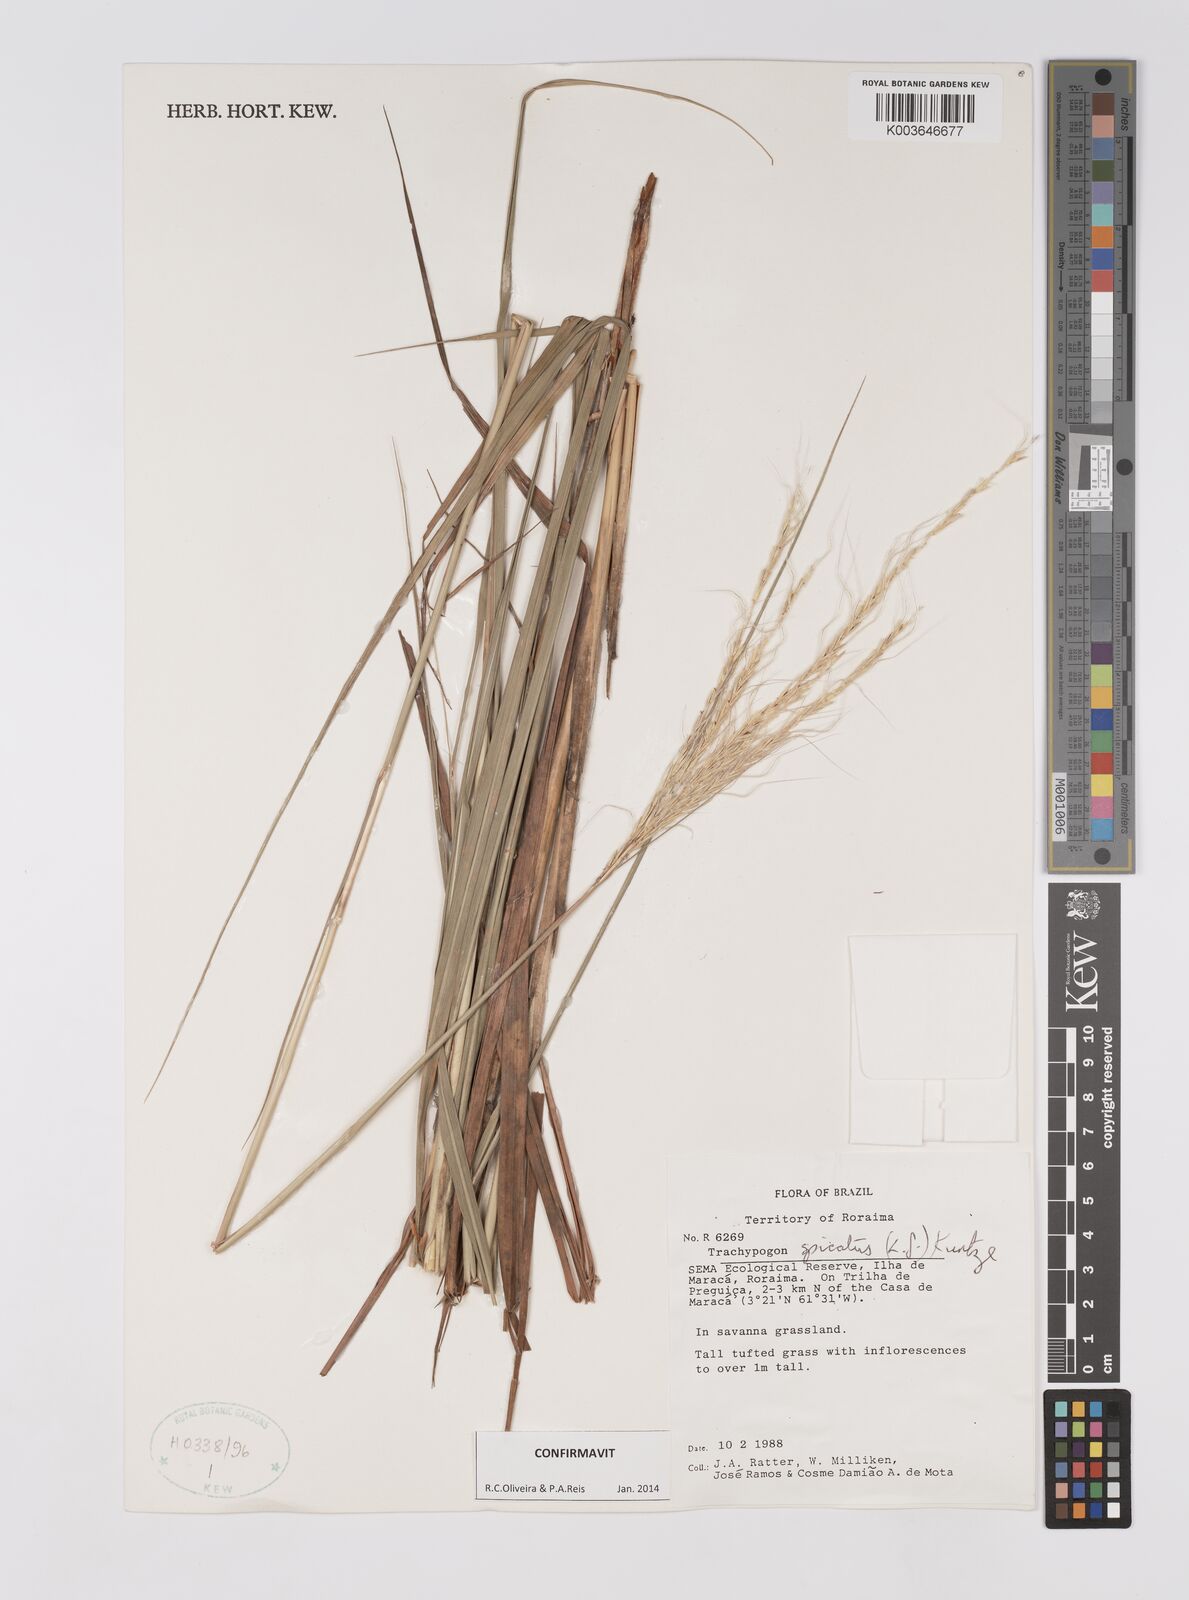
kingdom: Plantae
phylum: Tracheophyta
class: Liliopsida
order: Poales
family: Poaceae
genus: Trachypogon
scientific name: Trachypogon spicatus
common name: Crinkle-awn
